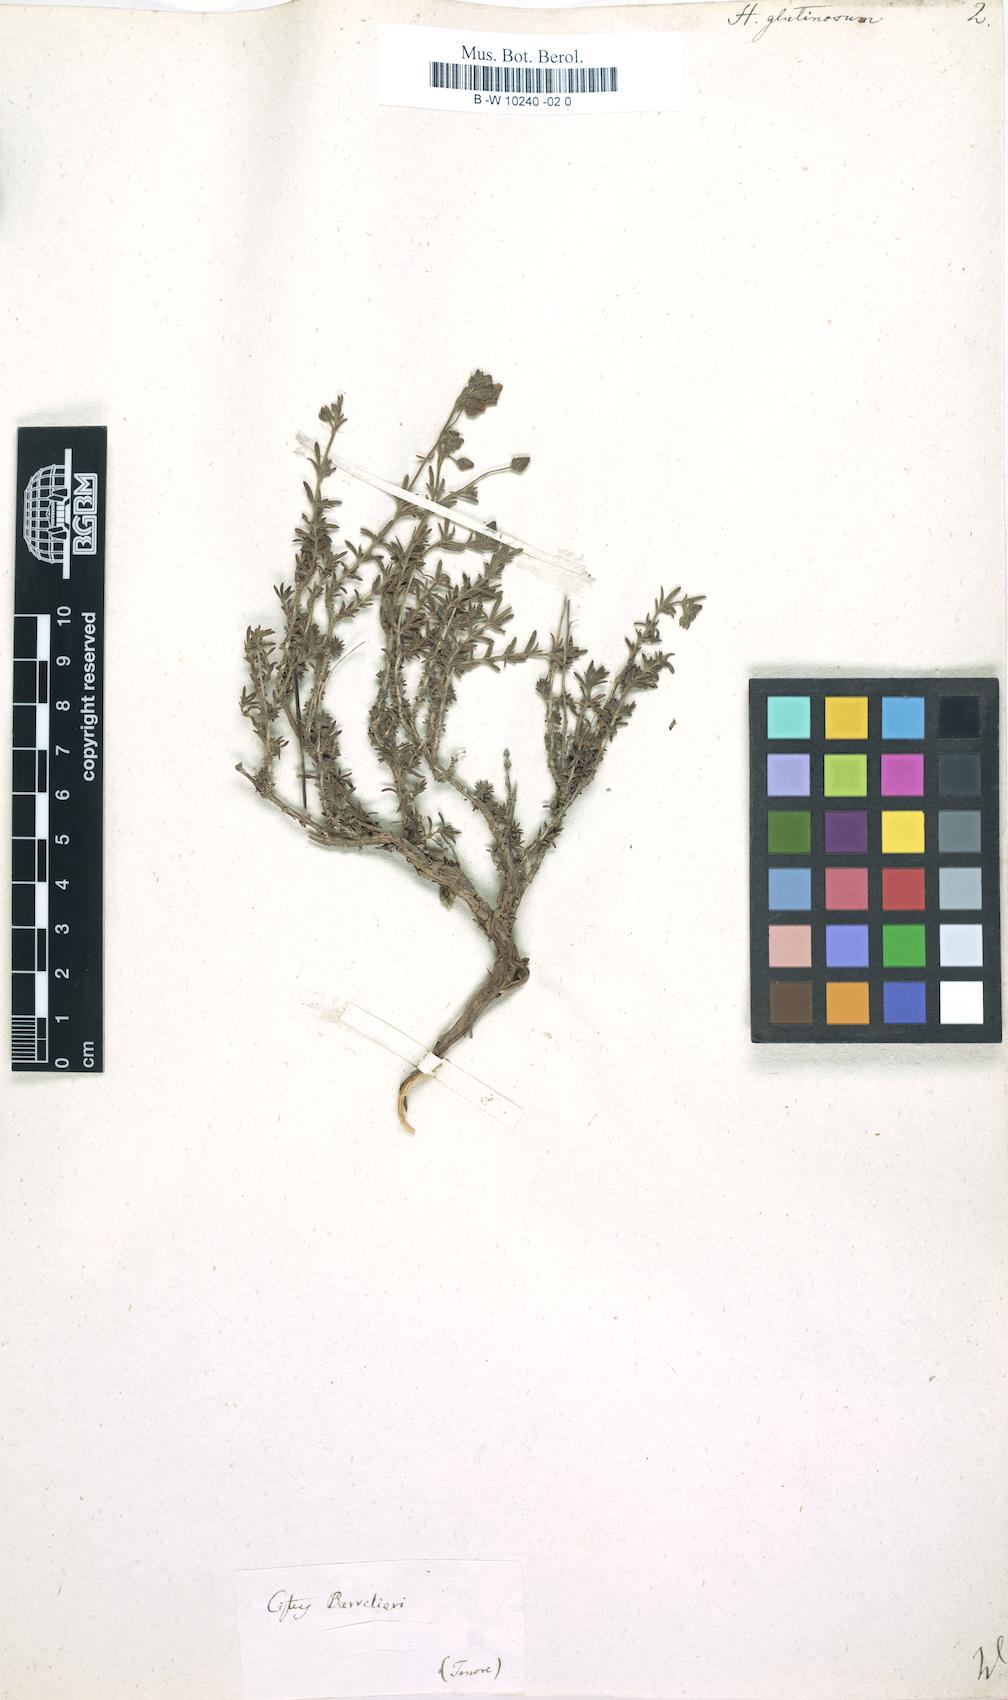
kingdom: Plantae
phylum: Tracheophyta
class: Magnoliopsida
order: Malvales
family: Cistaceae
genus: Fumana
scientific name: Fumana thymifolia
